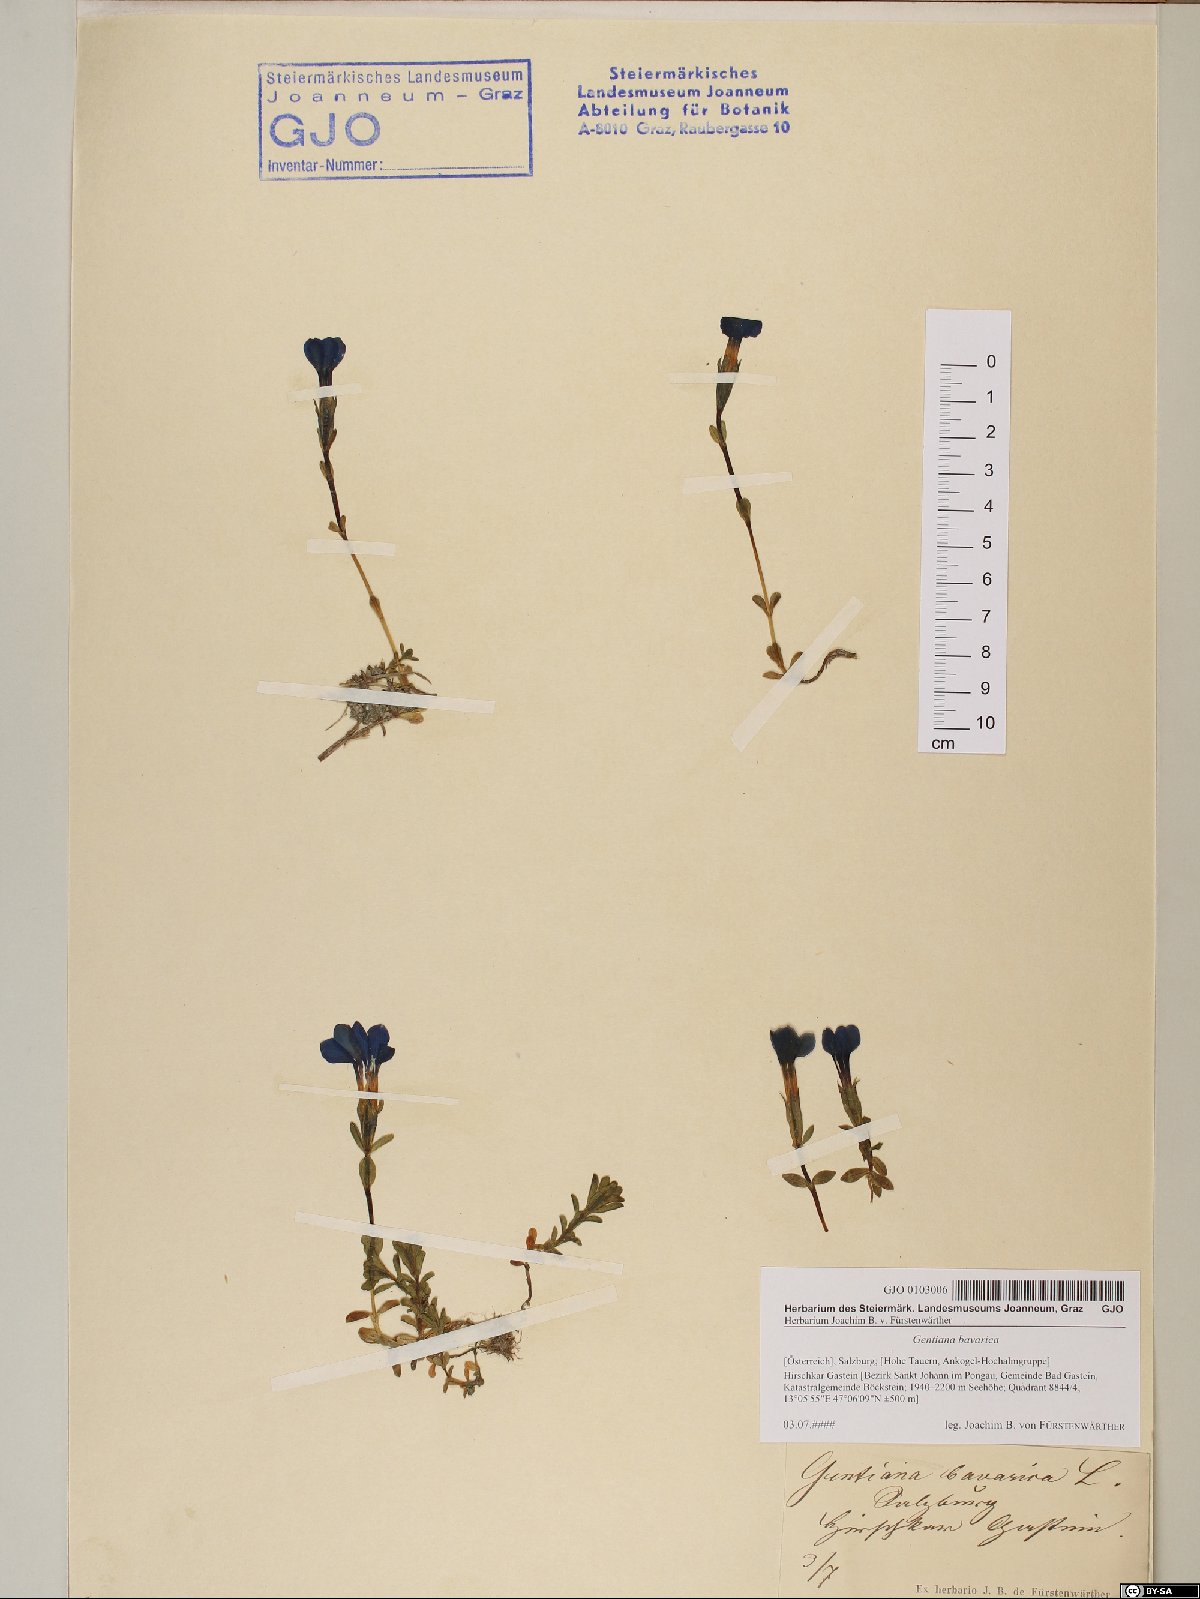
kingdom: Plantae
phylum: Tracheophyta
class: Magnoliopsida
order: Gentianales
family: Gentianaceae
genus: Gentiana
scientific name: Gentiana bavarica
